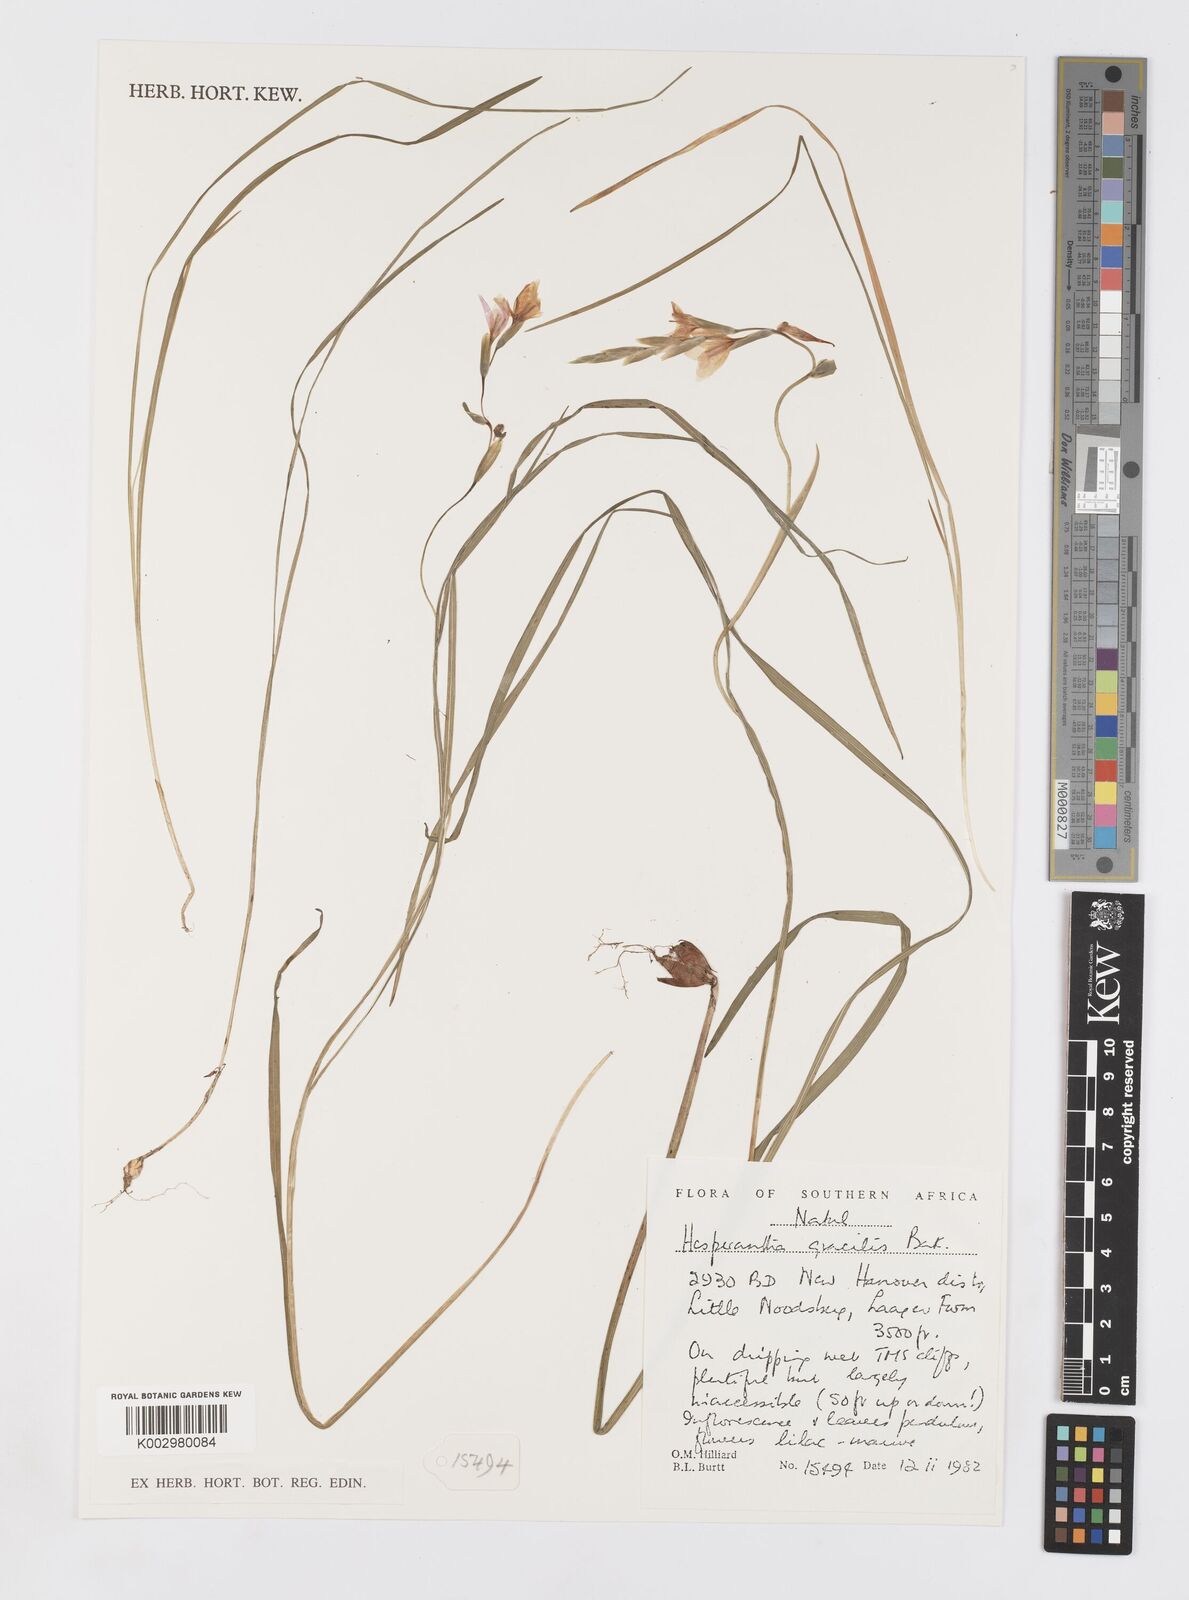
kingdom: Plantae
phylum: Tracheophyta
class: Liliopsida
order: Asparagales
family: Iridaceae
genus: Hesperantha
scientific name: Hesperantha gracilis
